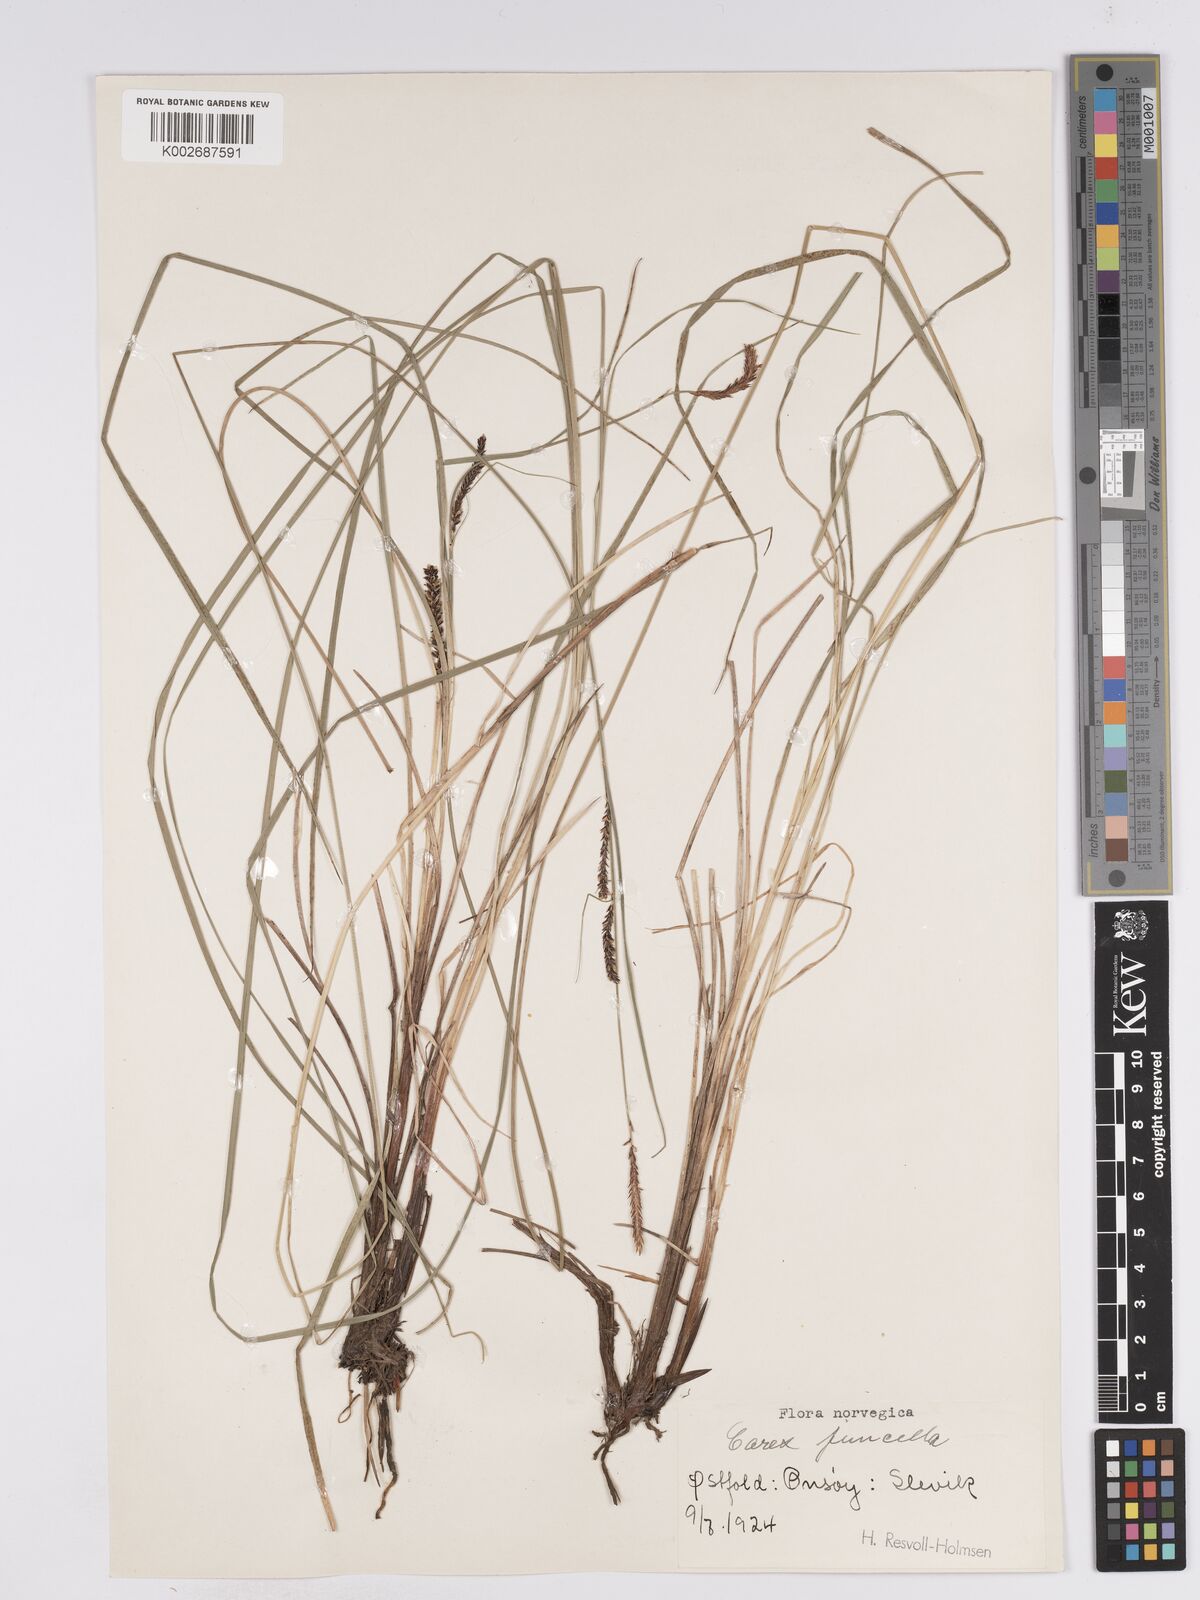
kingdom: Plantae
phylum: Tracheophyta
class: Liliopsida
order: Poales
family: Cyperaceae
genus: Carex
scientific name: Carex
